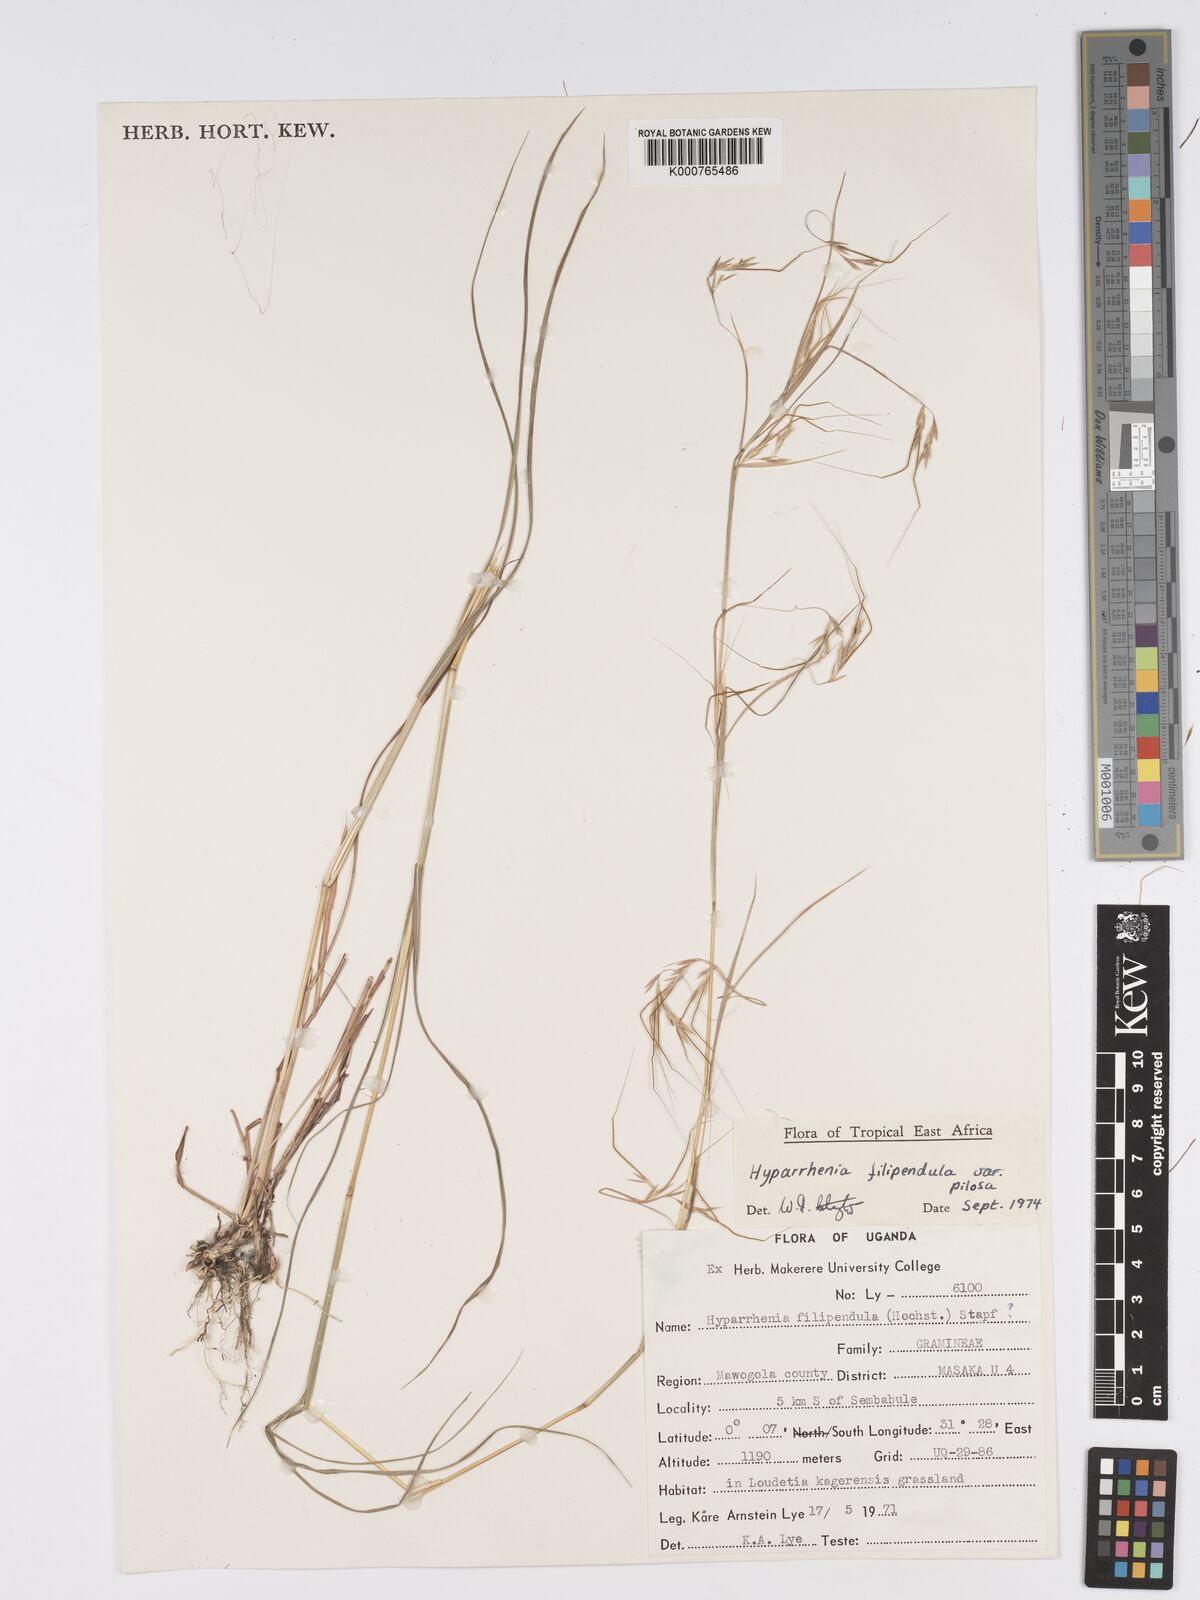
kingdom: Plantae
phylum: Tracheophyta
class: Liliopsida
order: Poales
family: Poaceae
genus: Hyparrhenia
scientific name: Hyparrhenia filipendula
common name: Tambookie grass
